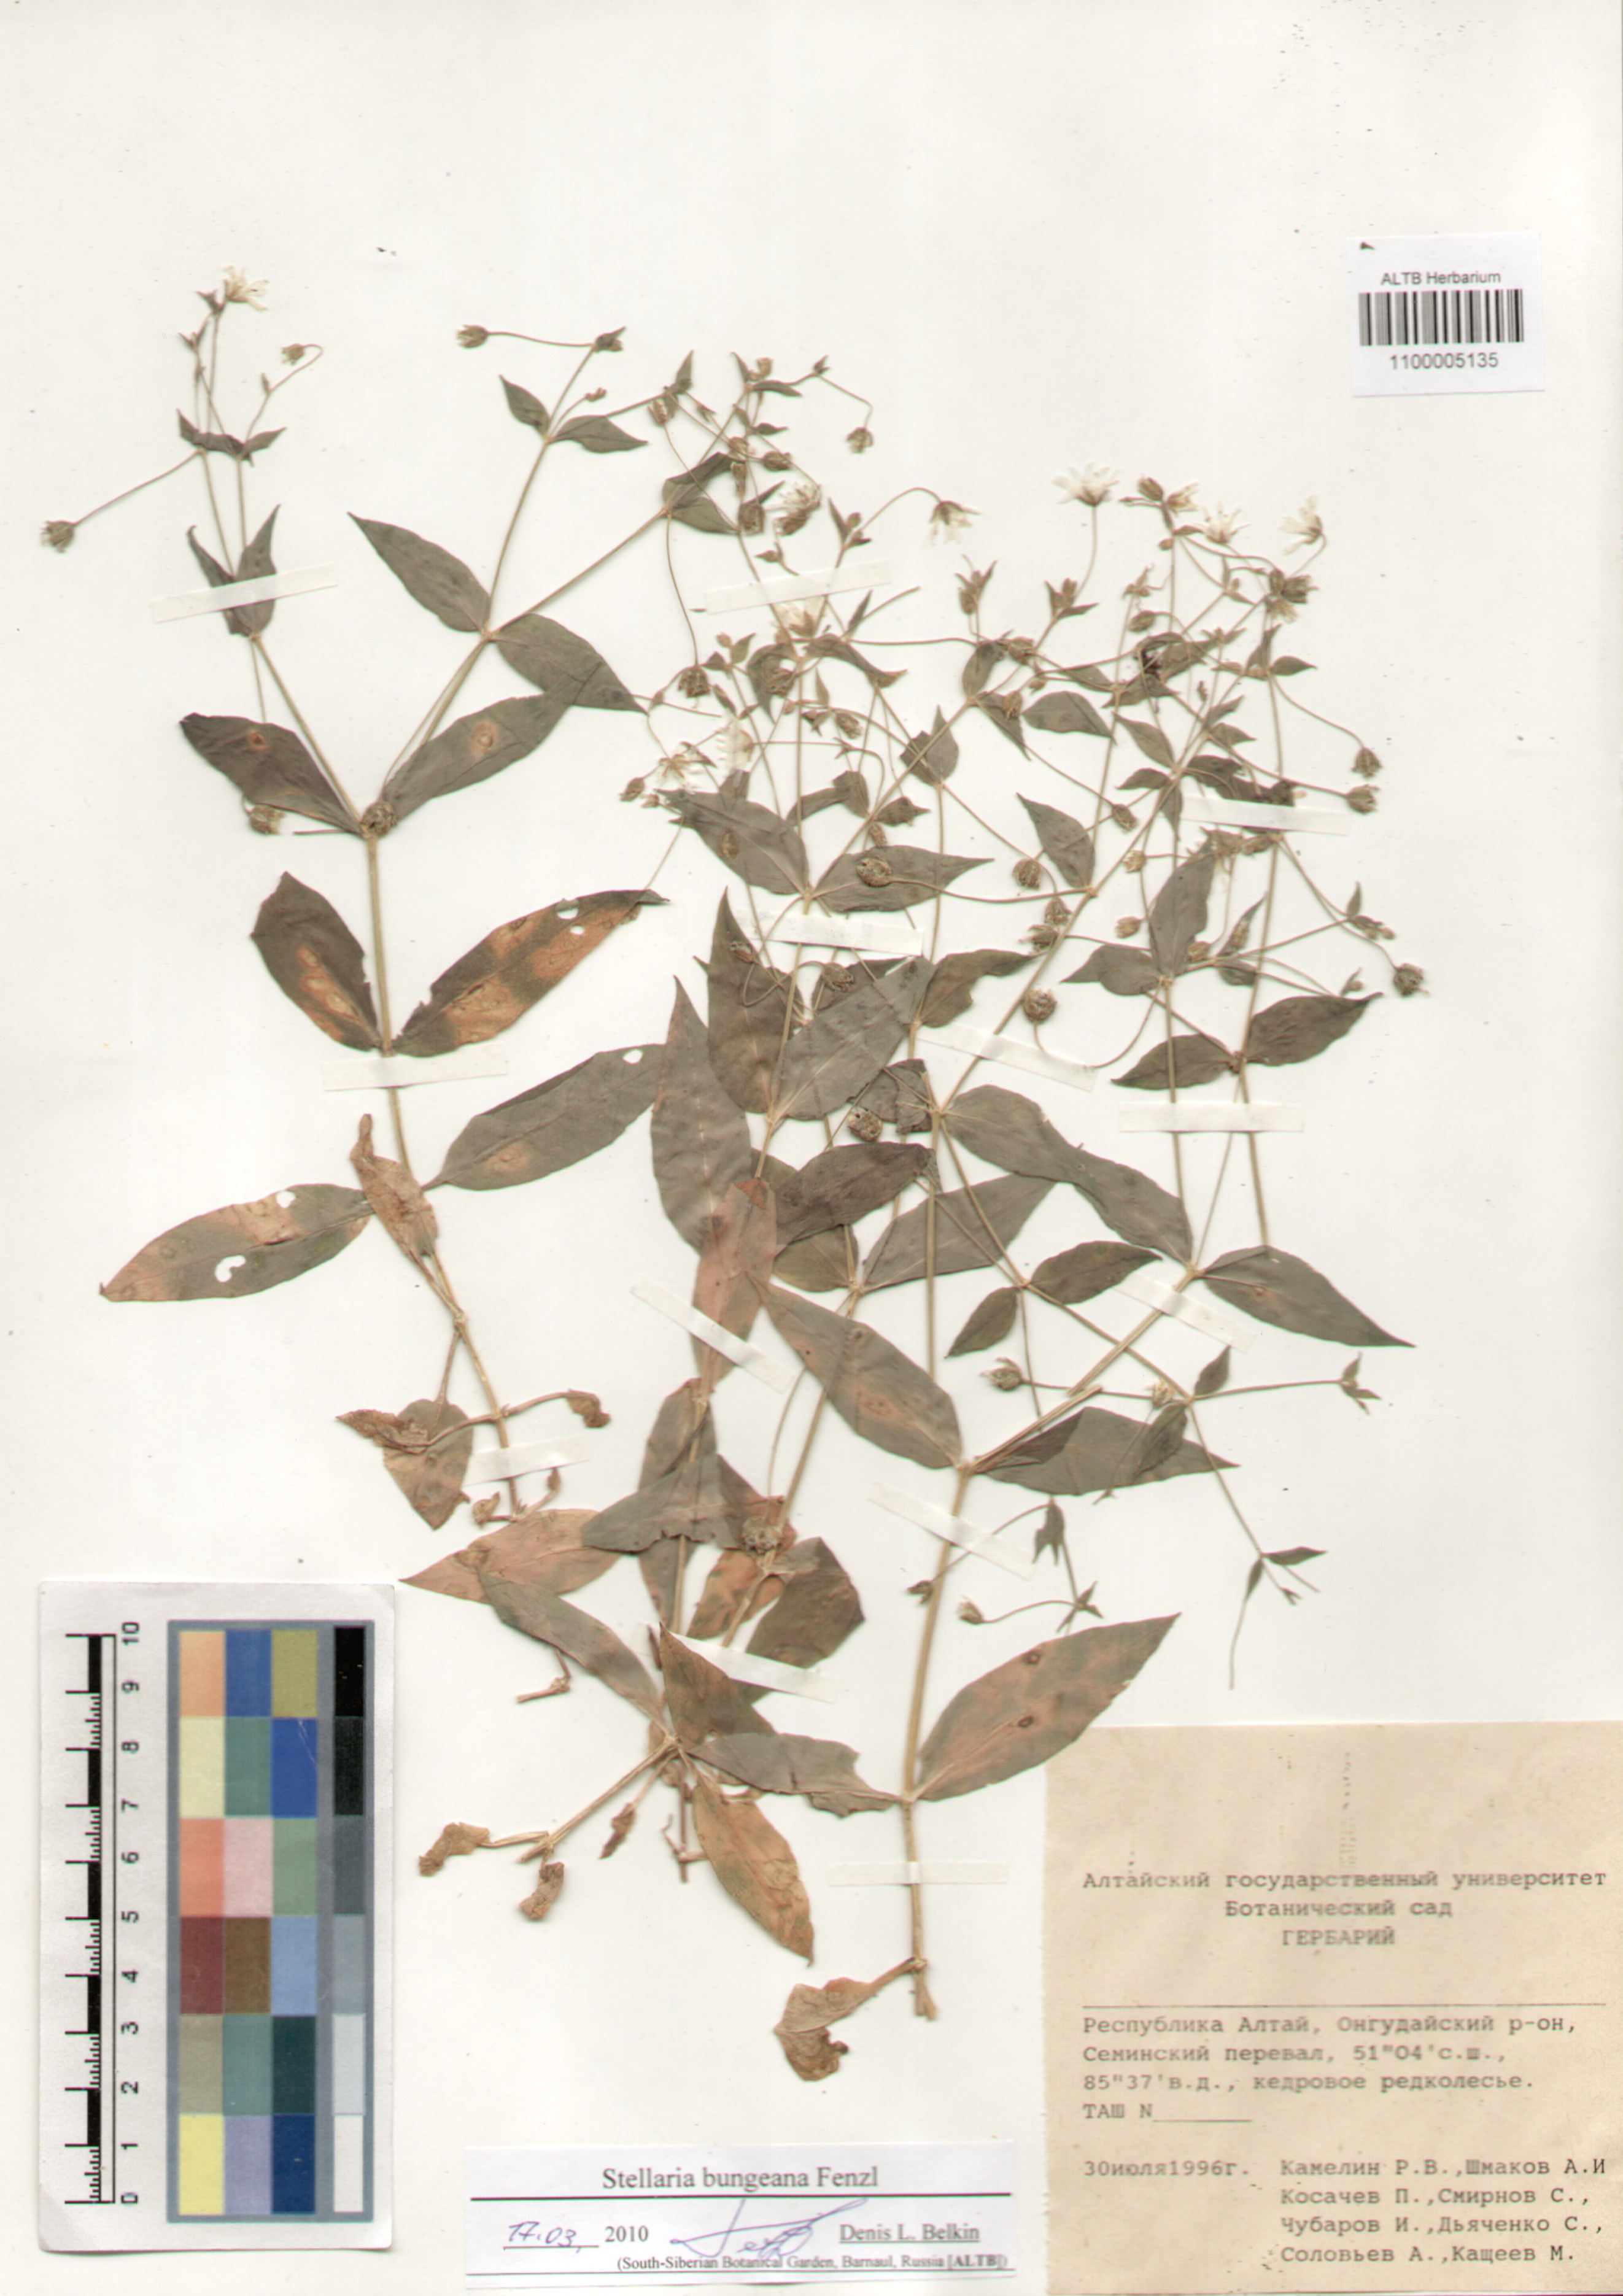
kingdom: Plantae
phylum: Tracheophyta
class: Magnoliopsida
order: Caryophyllales
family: Caryophyllaceae
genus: Stellaria
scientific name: Stellaria bungeana
